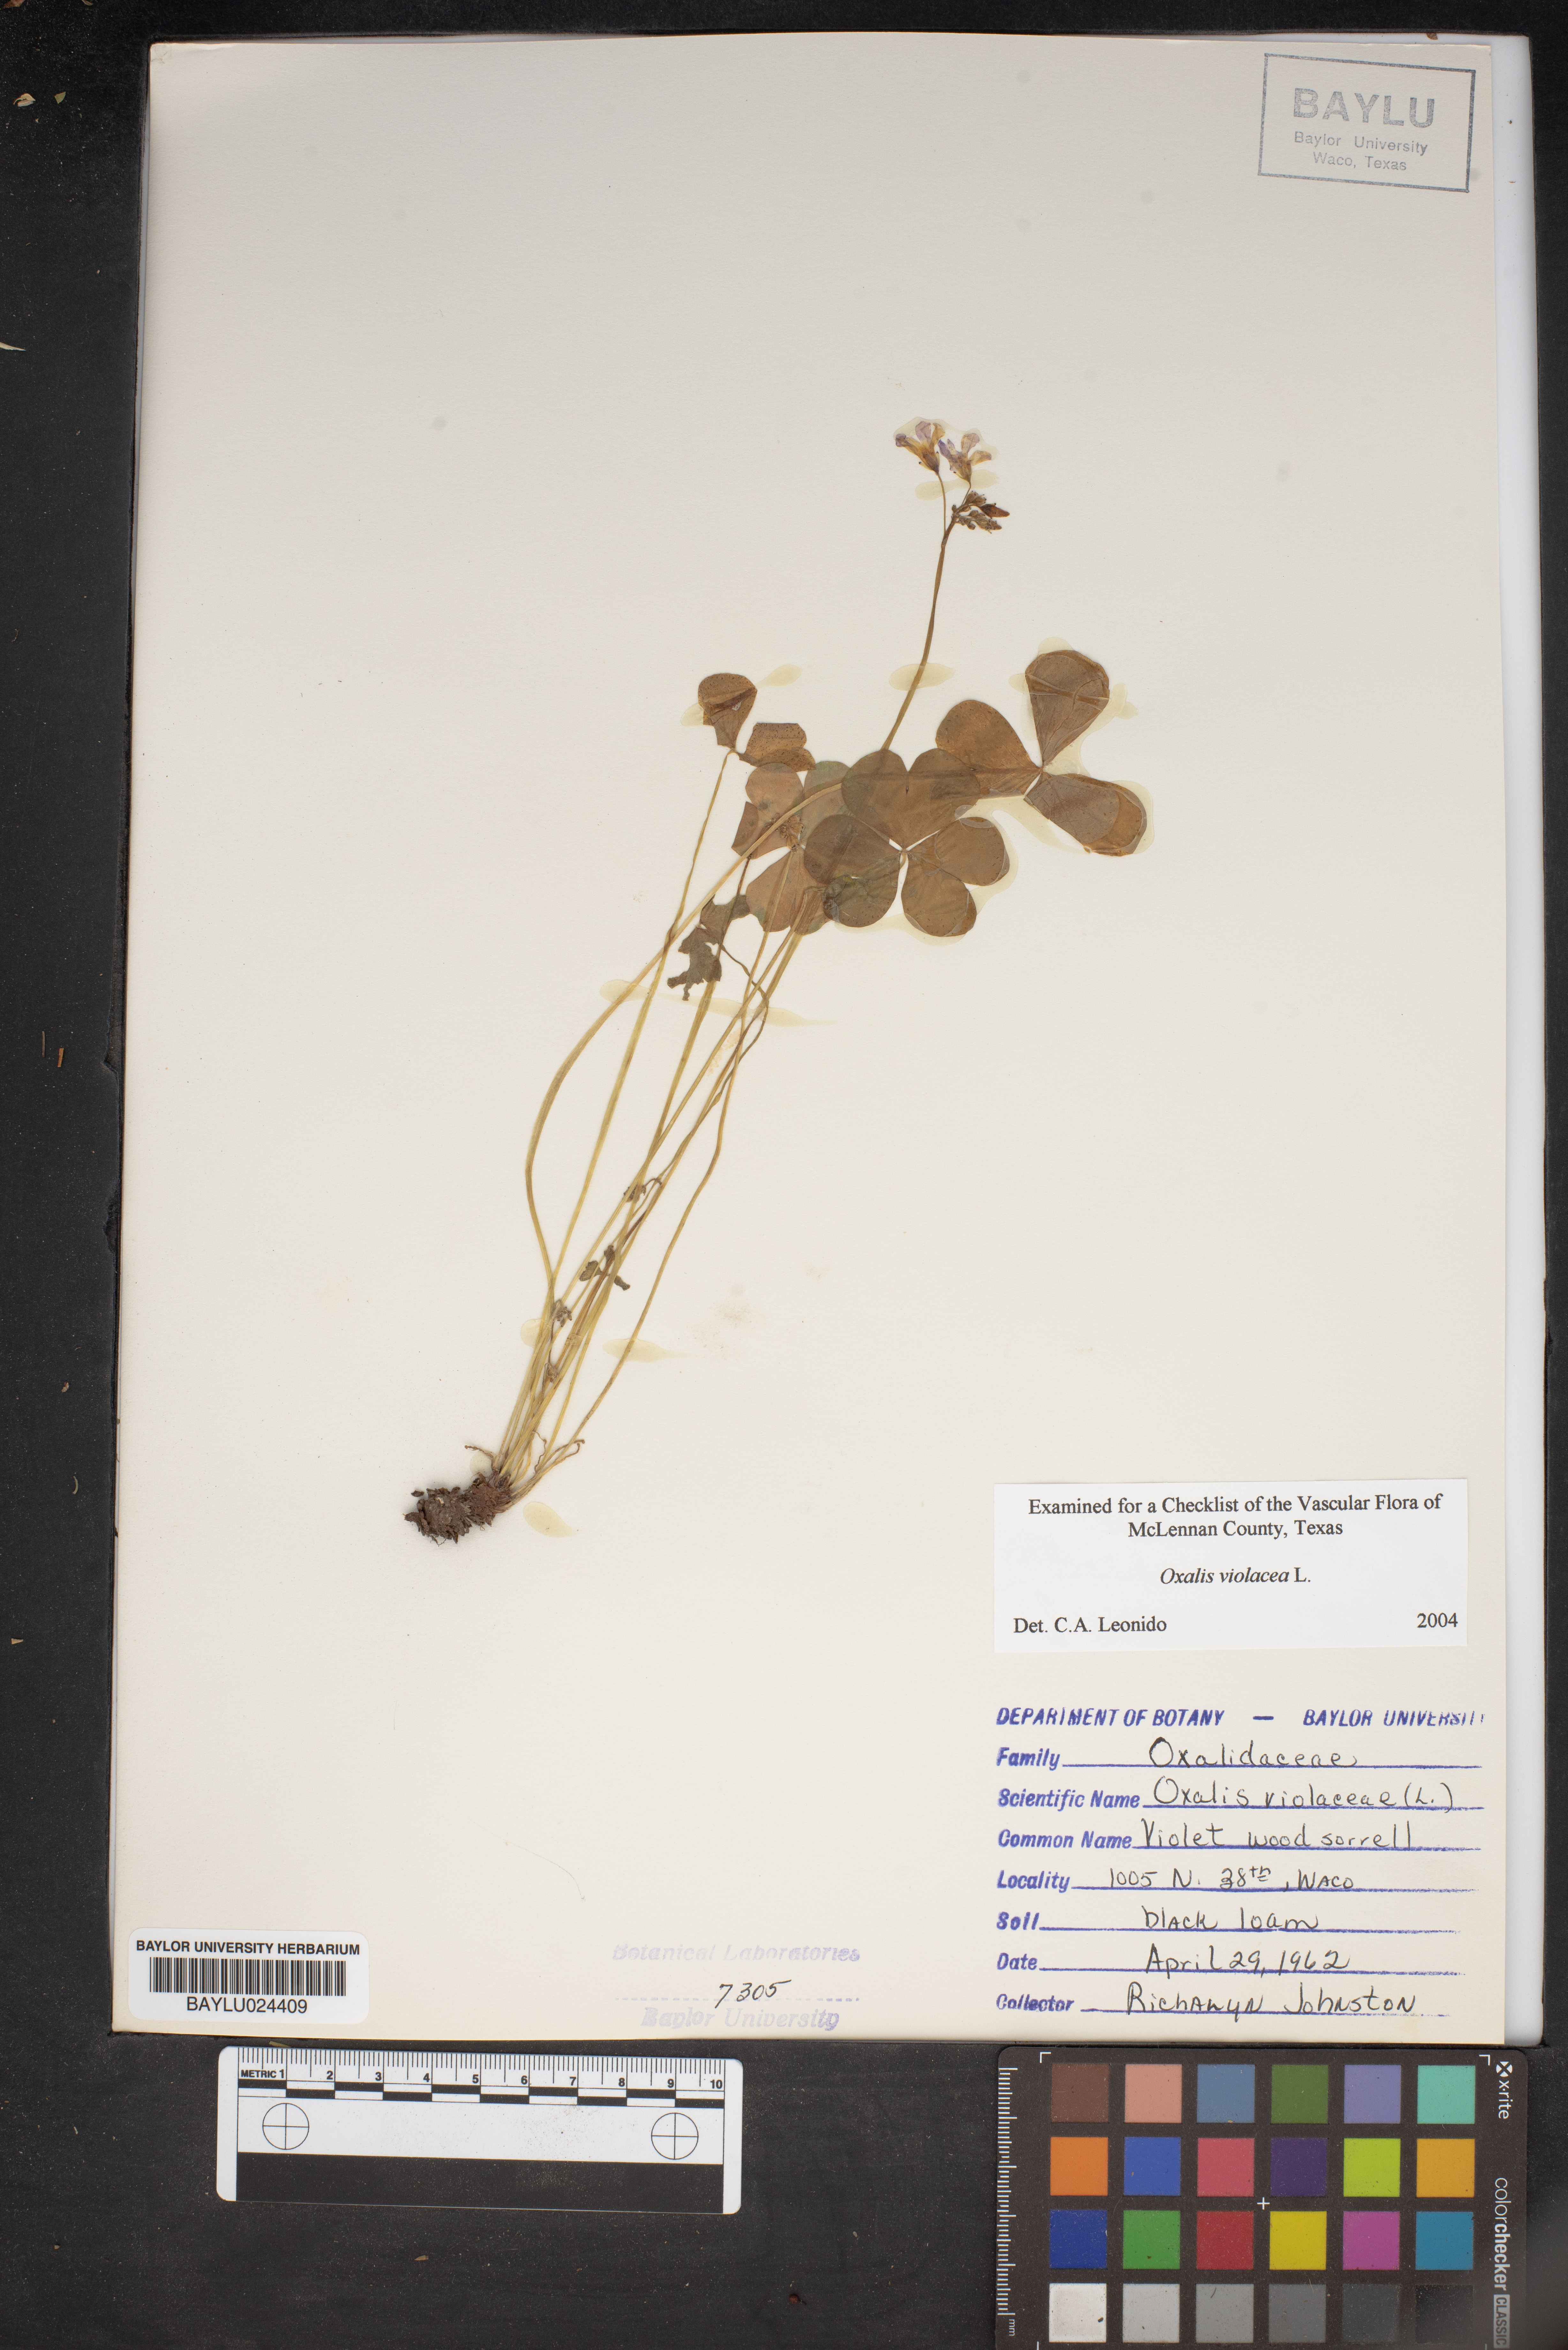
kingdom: Plantae
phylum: Tracheophyta
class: Magnoliopsida
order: Oxalidales
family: Oxalidaceae
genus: Oxalis
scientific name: Oxalis violacea
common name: Violet wood-sorrel
